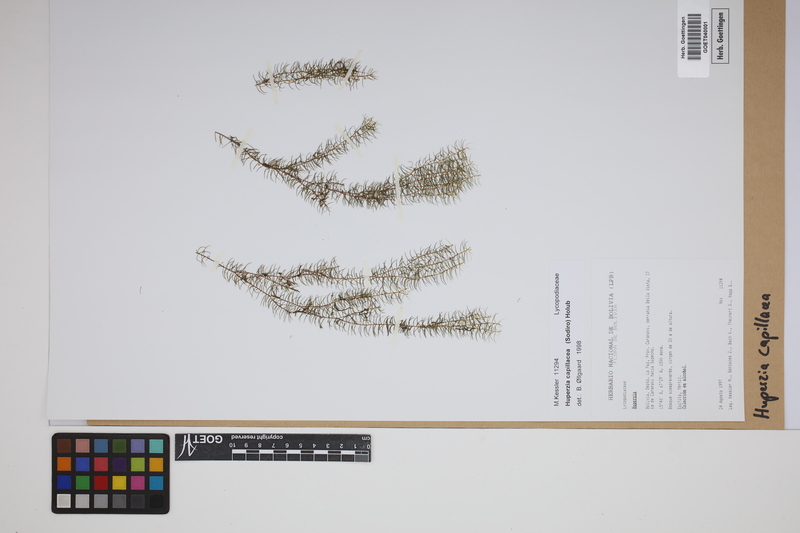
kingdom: Plantae
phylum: Tracheophyta
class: Lycopodiopsida
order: Lycopodiales
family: Lycopodiaceae
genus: Phlegmariurus
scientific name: Phlegmariurus capillaris
